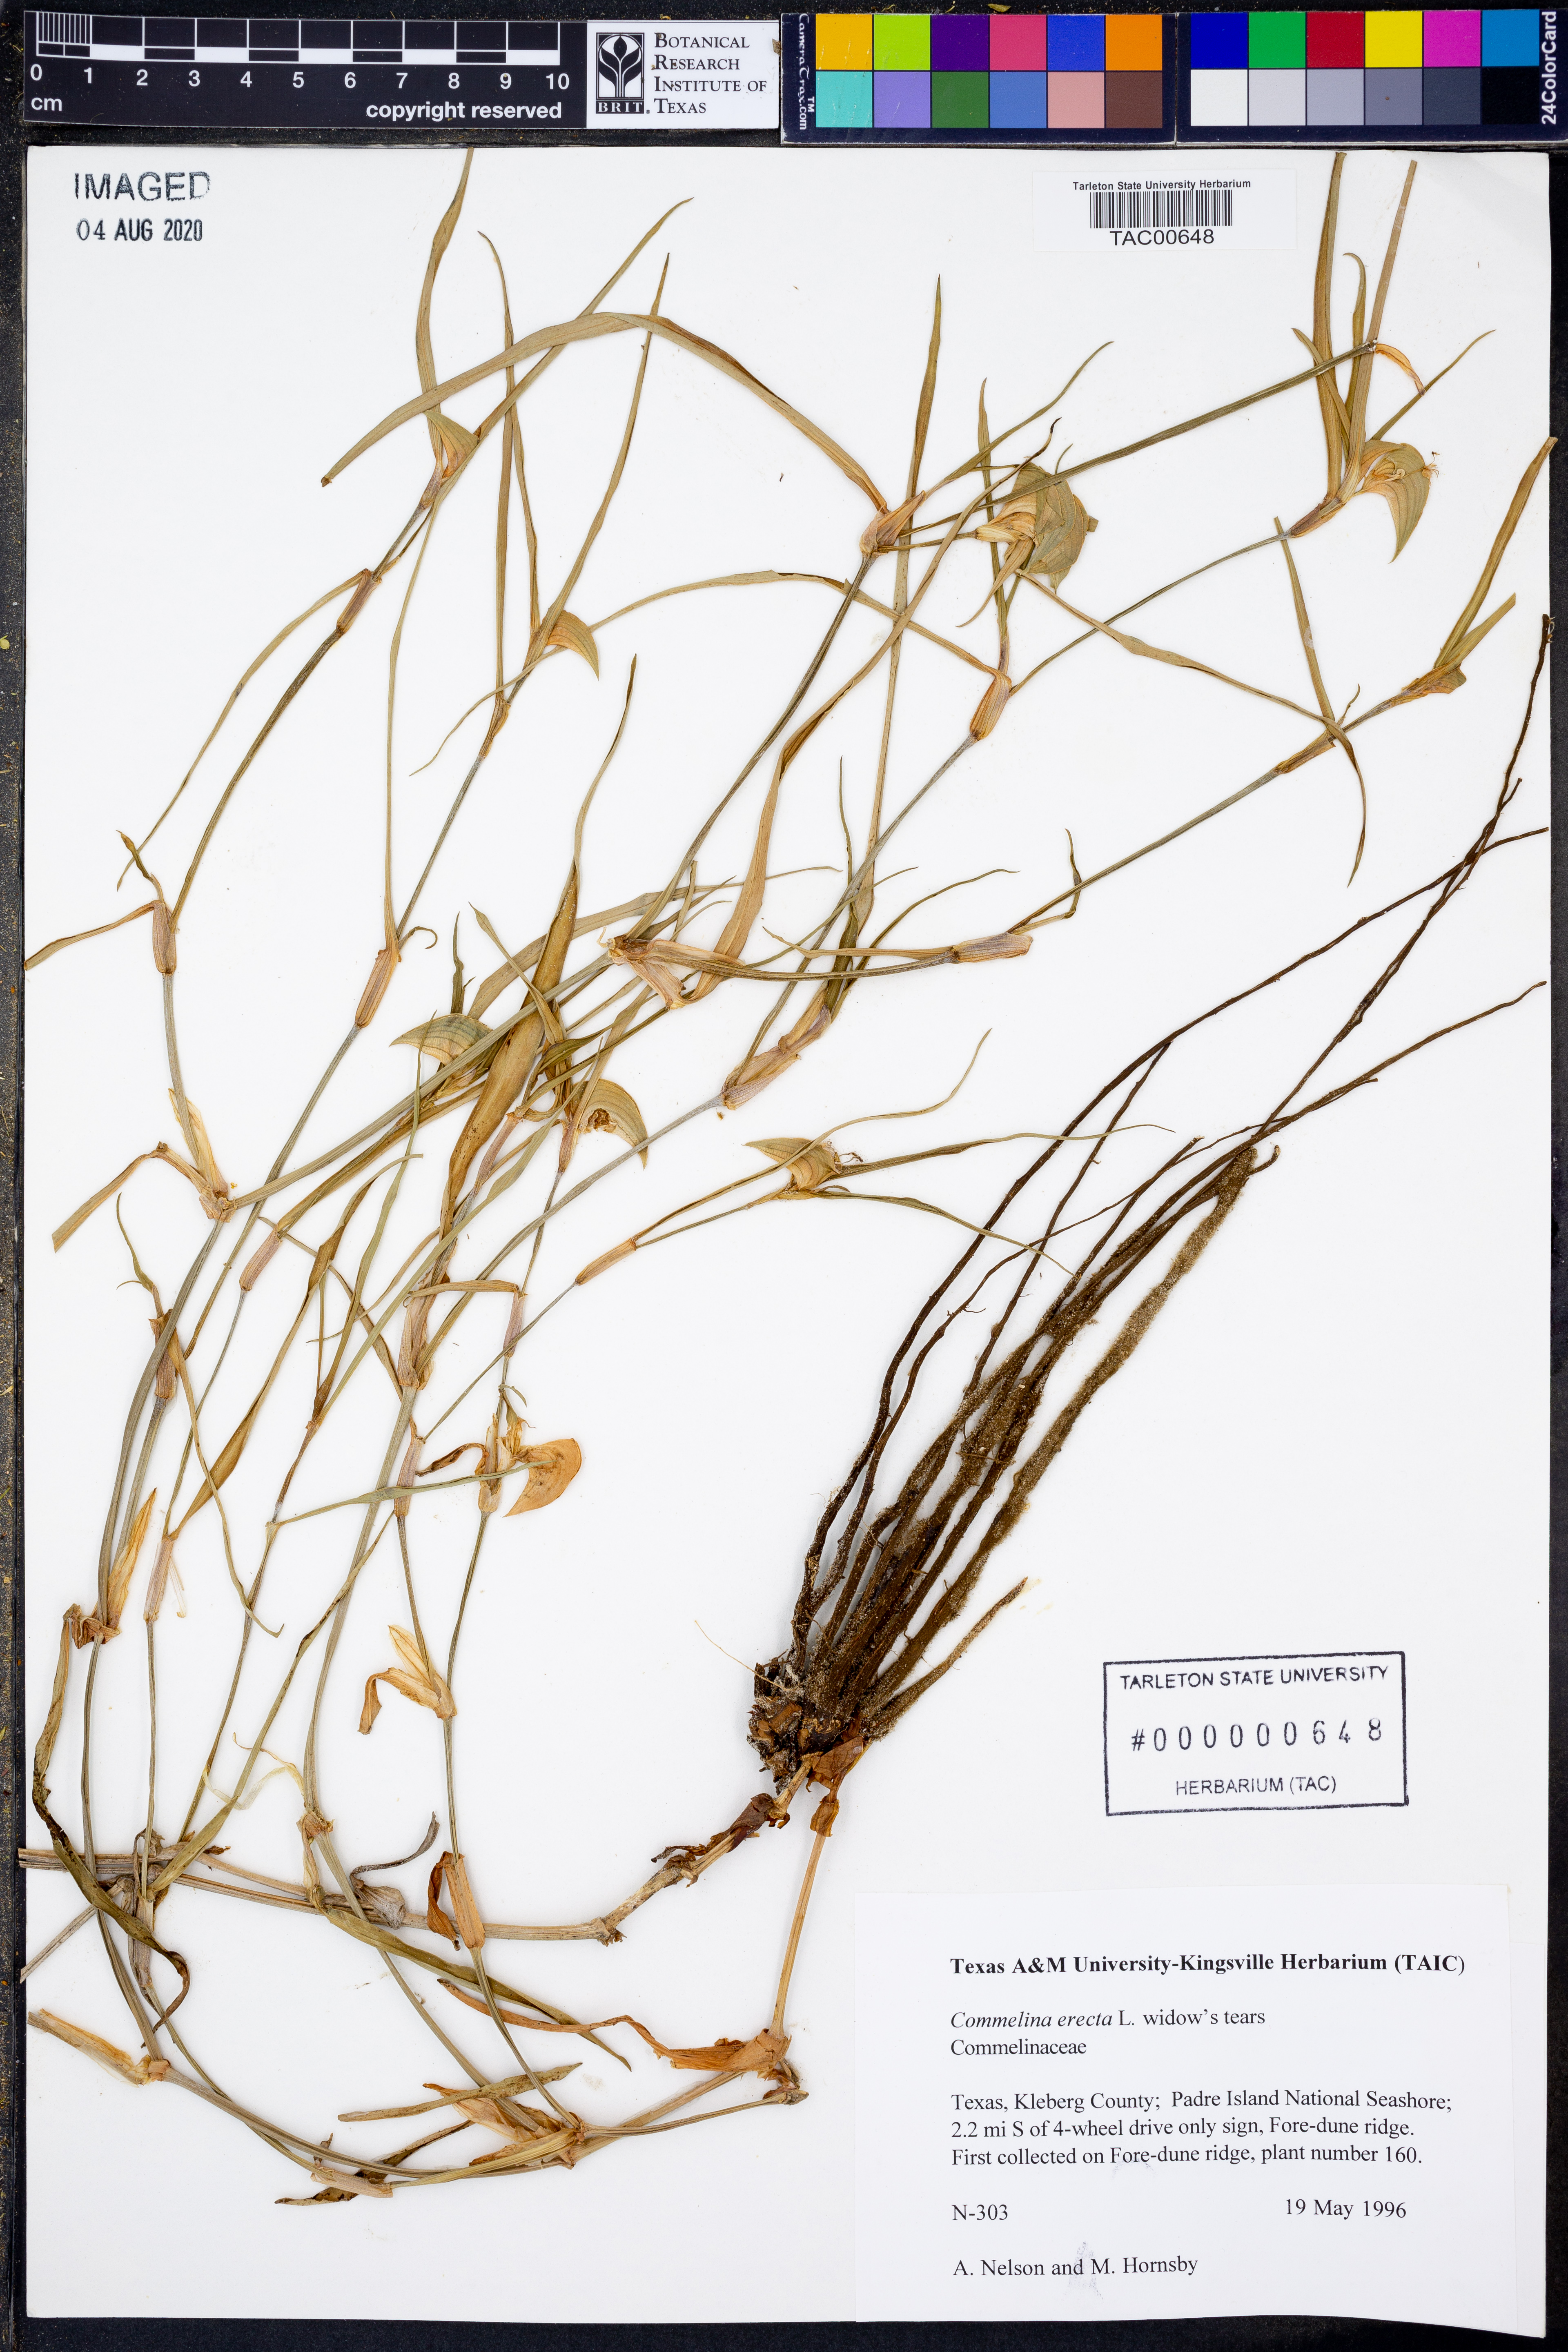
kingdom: Plantae
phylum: Tracheophyta
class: Liliopsida
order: Commelinales
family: Commelinaceae
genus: Commelina
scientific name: Commelina erecta
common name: Blousel blommetjie
